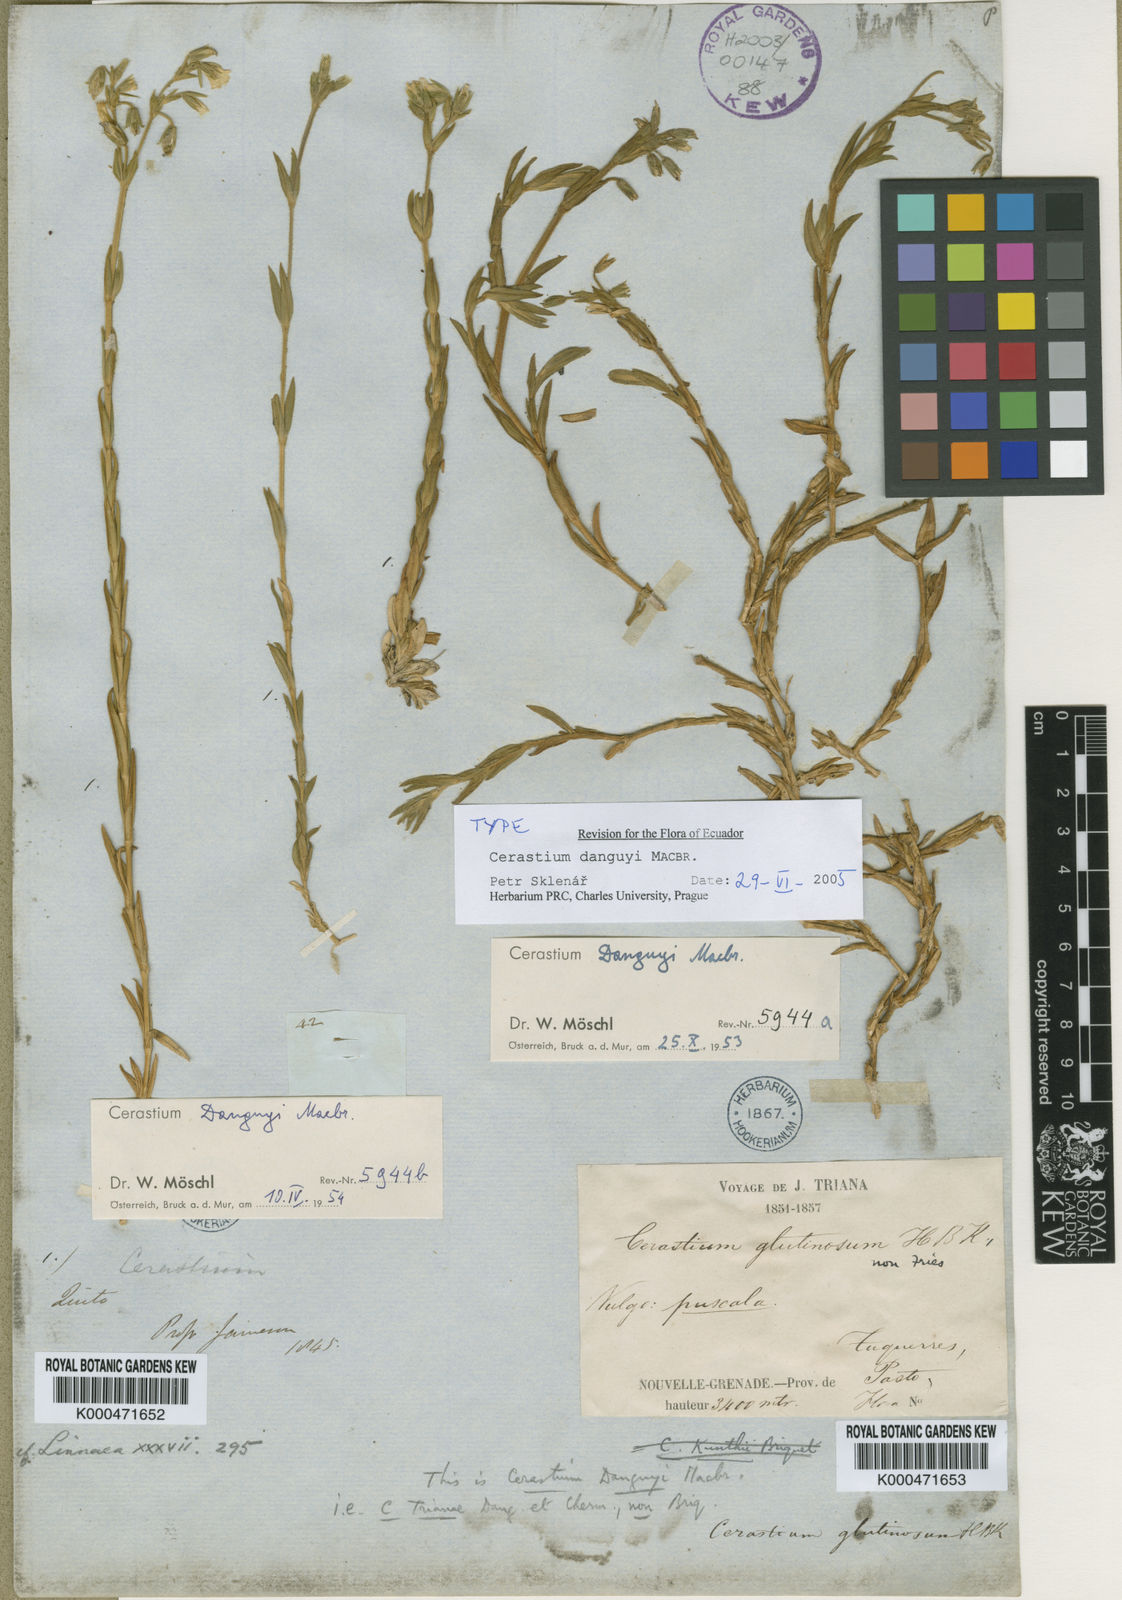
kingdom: Plantae
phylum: Tracheophyta
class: Magnoliopsida
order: Caryophyllales
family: Caryophyllaceae
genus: Cerastium
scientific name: Cerastium danguyi
